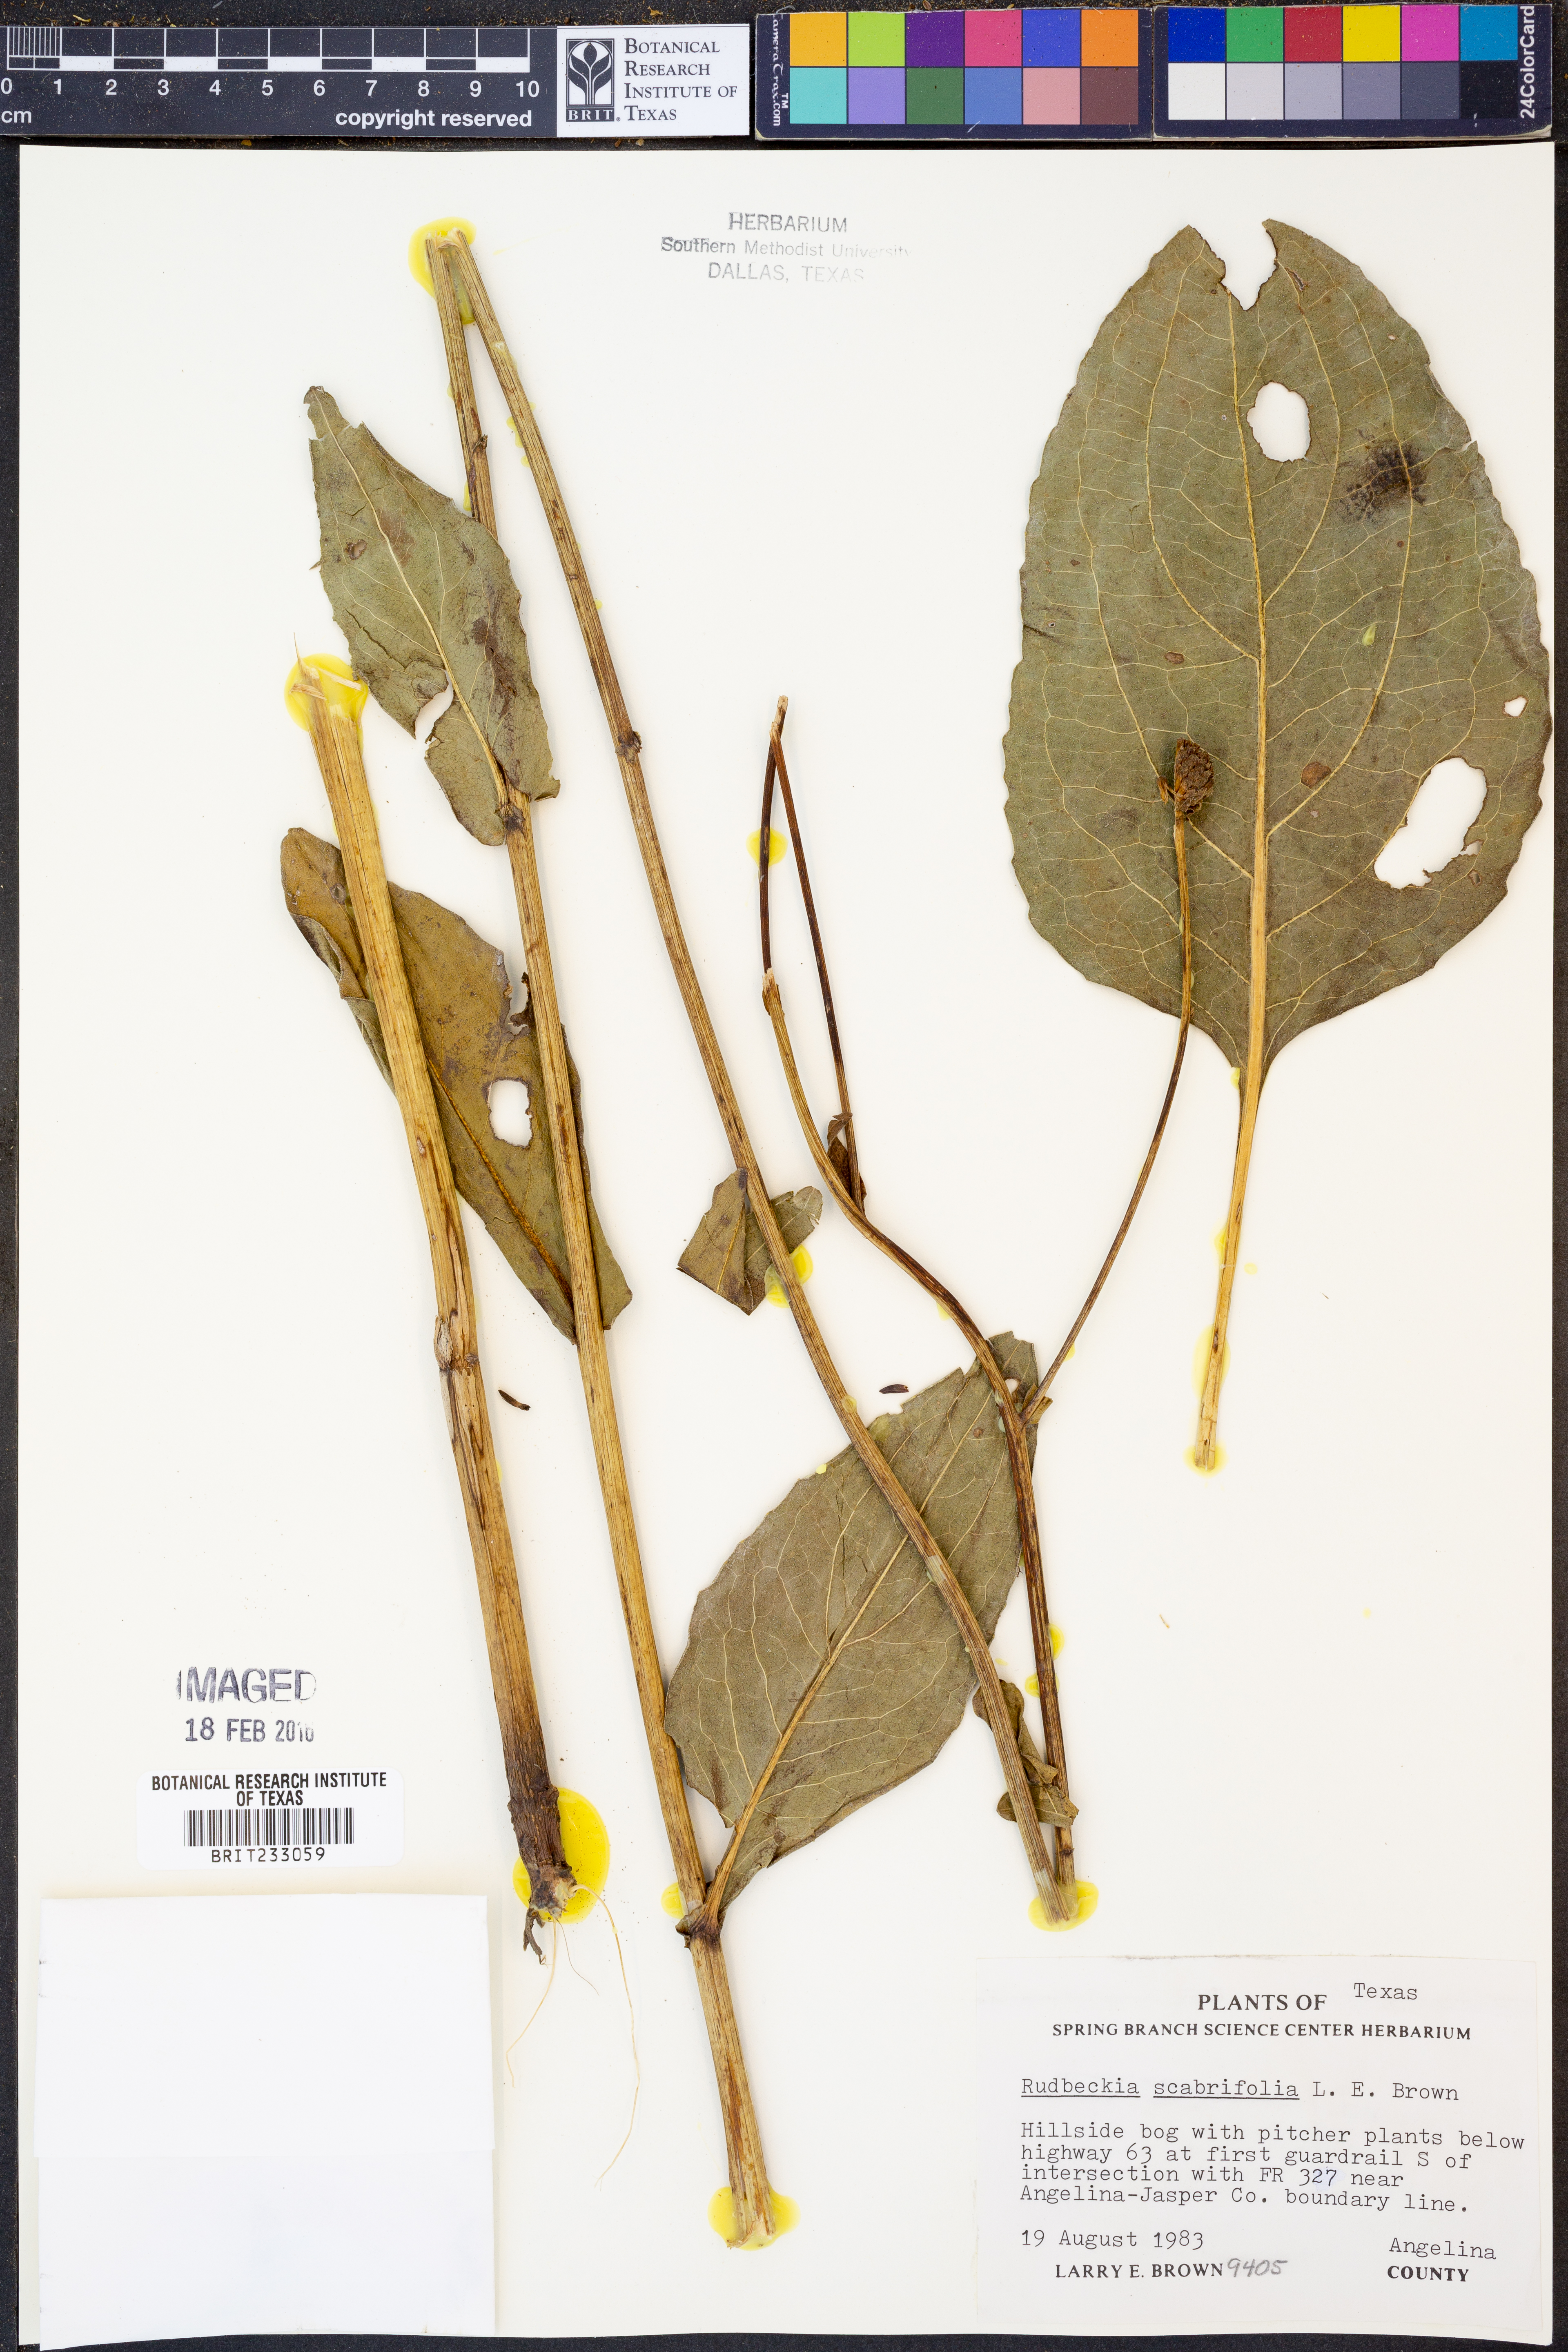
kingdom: Plantae
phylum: Tracheophyta
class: Magnoliopsida
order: Asterales
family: Asteraceae
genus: Rudbeckia
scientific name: Rudbeckia scabrifolia
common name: Rough-leaf coneflower
